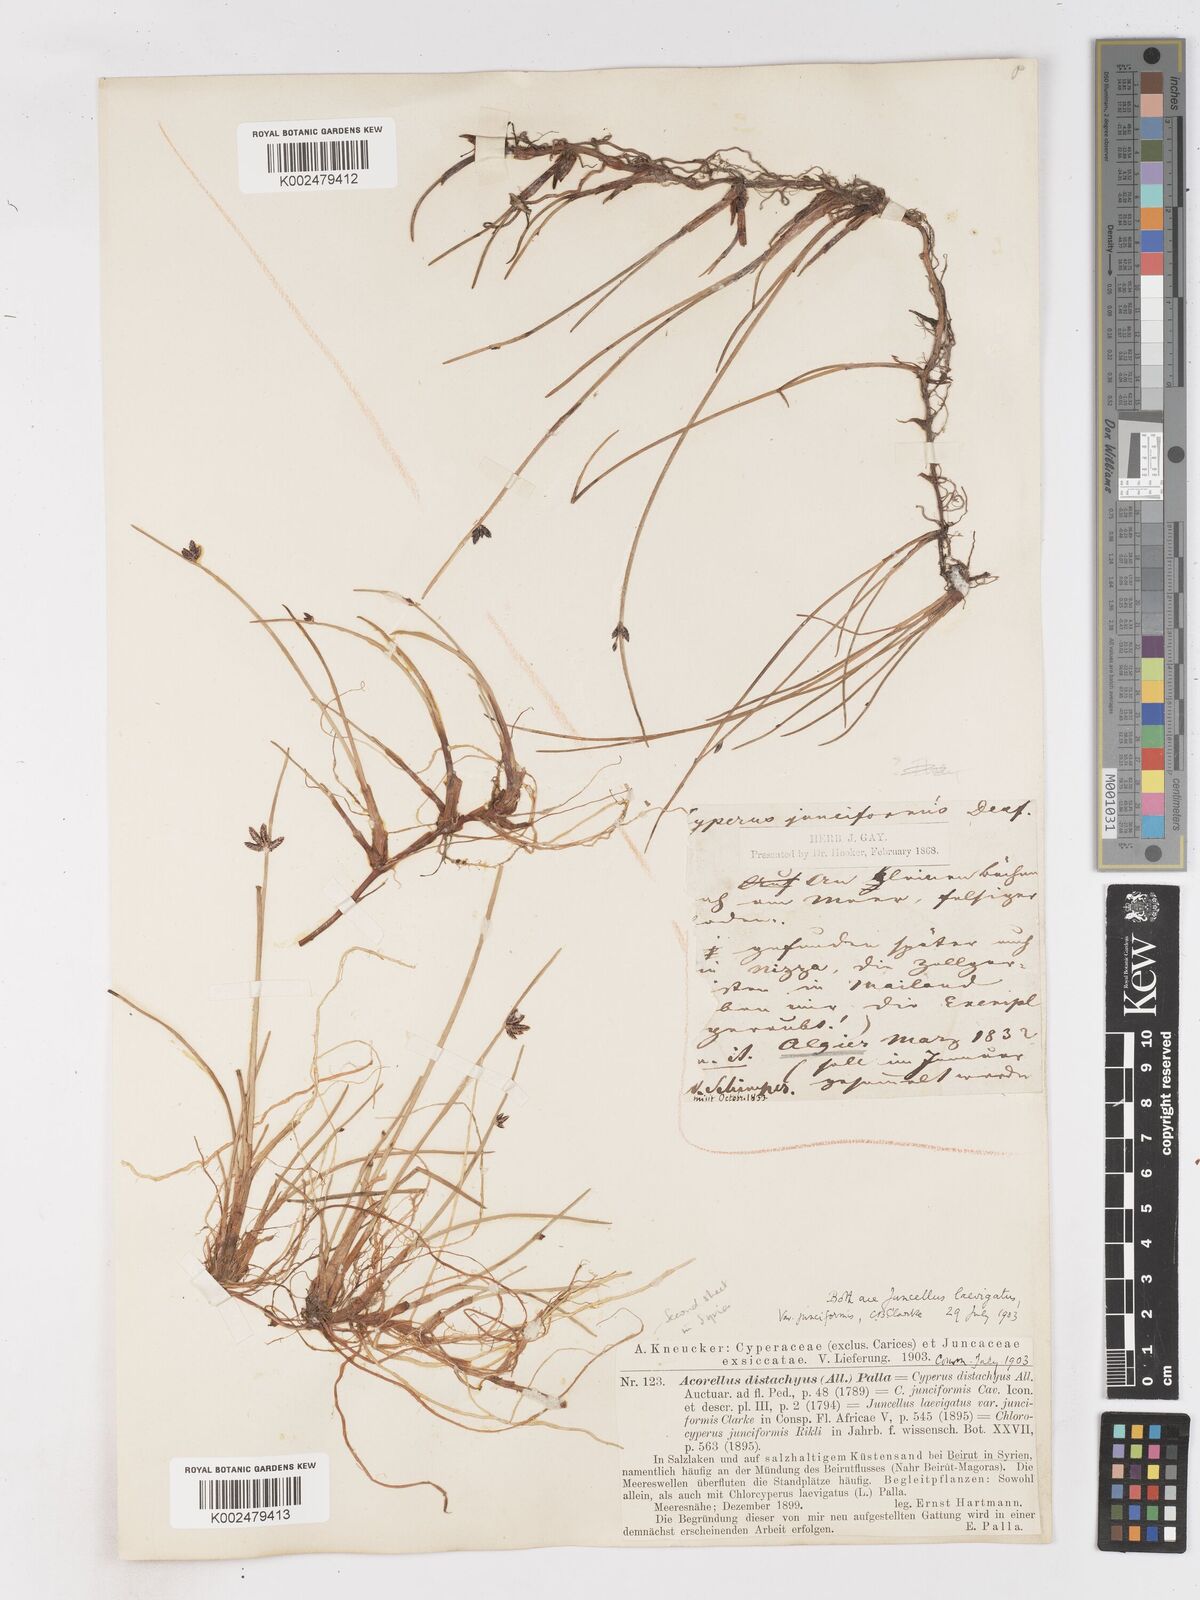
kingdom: Plantae
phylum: Tracheophyta
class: Liliopsida
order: Poales
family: Cyperaceae
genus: Cyperus
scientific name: Cyperus laevigatus
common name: Smooth flat sedge
